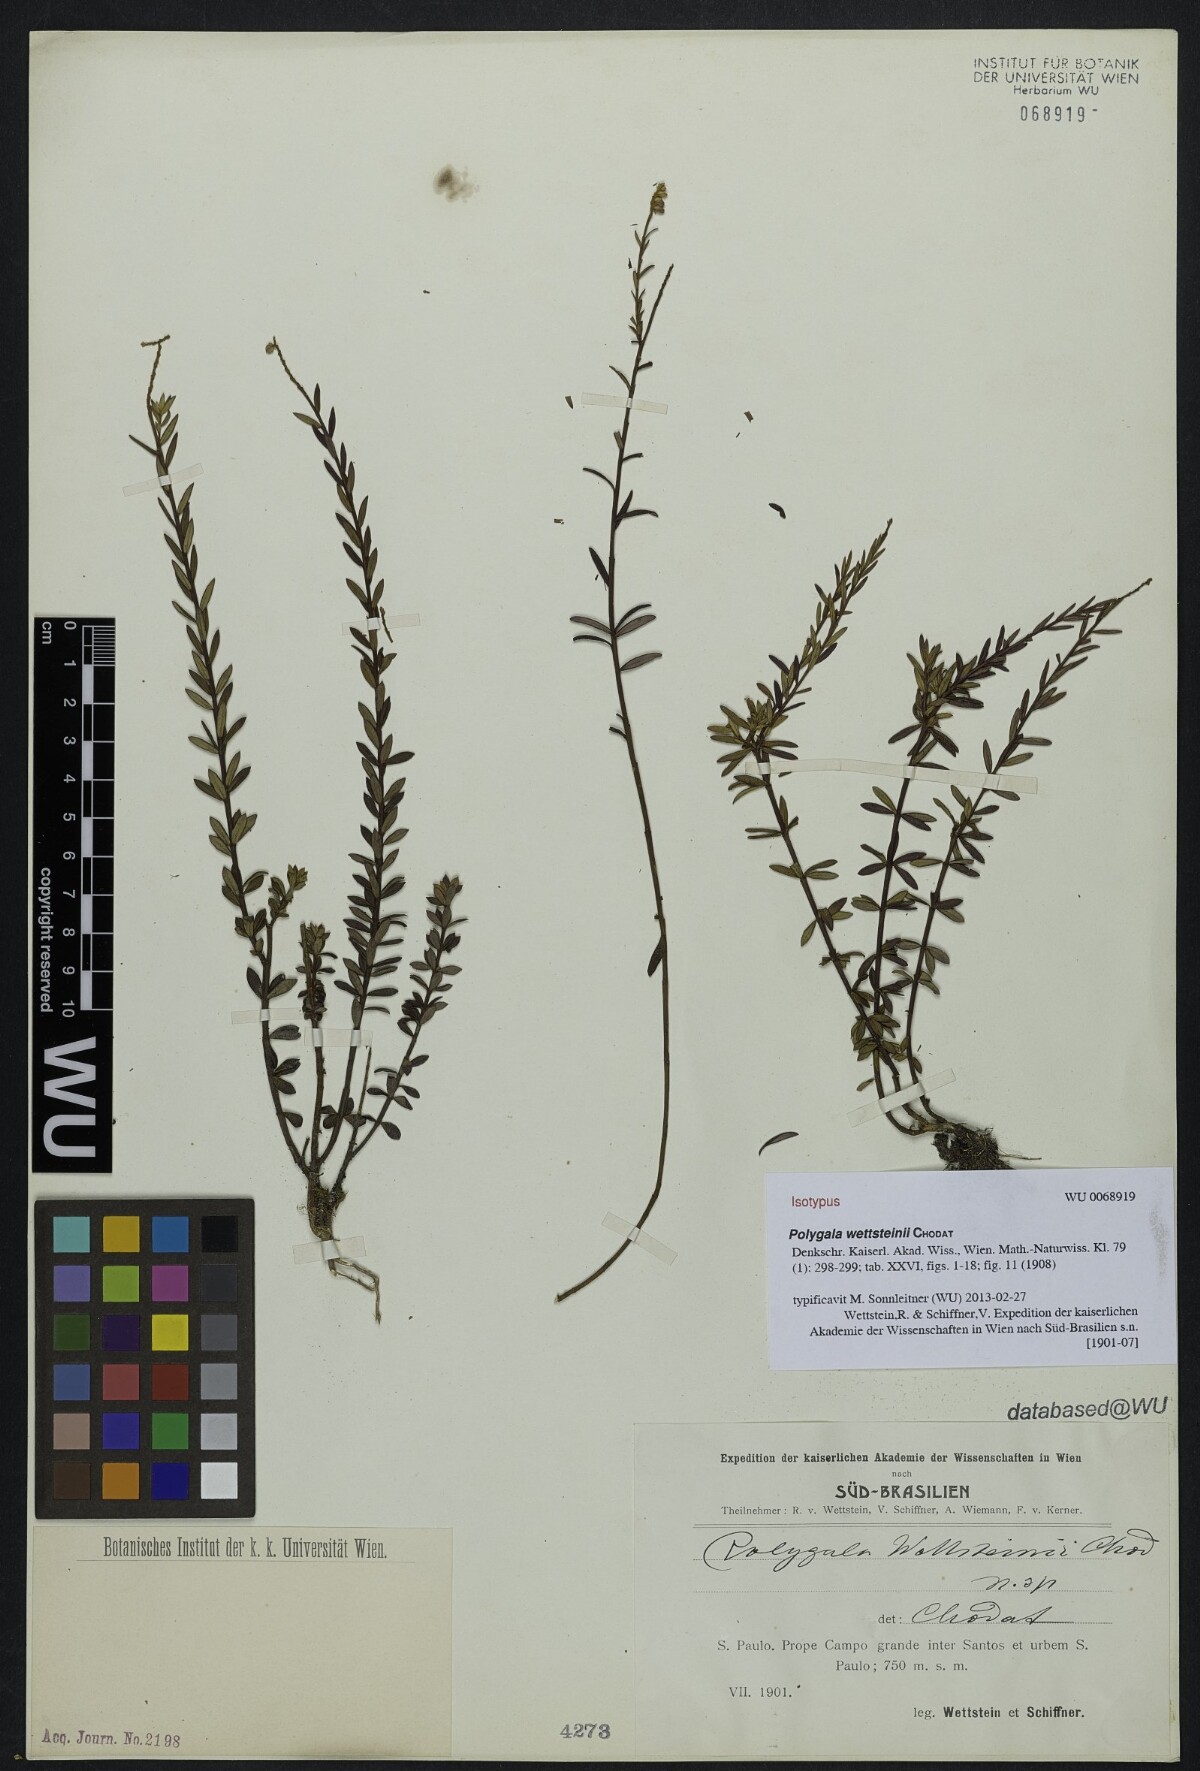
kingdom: Plantae
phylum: Tracheophyta
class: Magnoliopsida
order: Fabales
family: Polygalaceae
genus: Polygala
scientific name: Polygala wettsteinii
